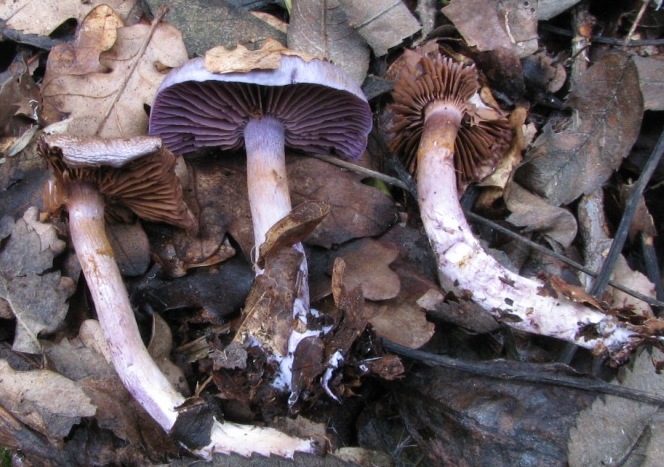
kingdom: Fungi
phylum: Basidiomycota
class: Agaricomycetes
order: Agaricales
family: Cortinariaceae
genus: Thaxterogaster
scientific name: Thaxterogaster subporphyropus
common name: ametyst-slørhat
